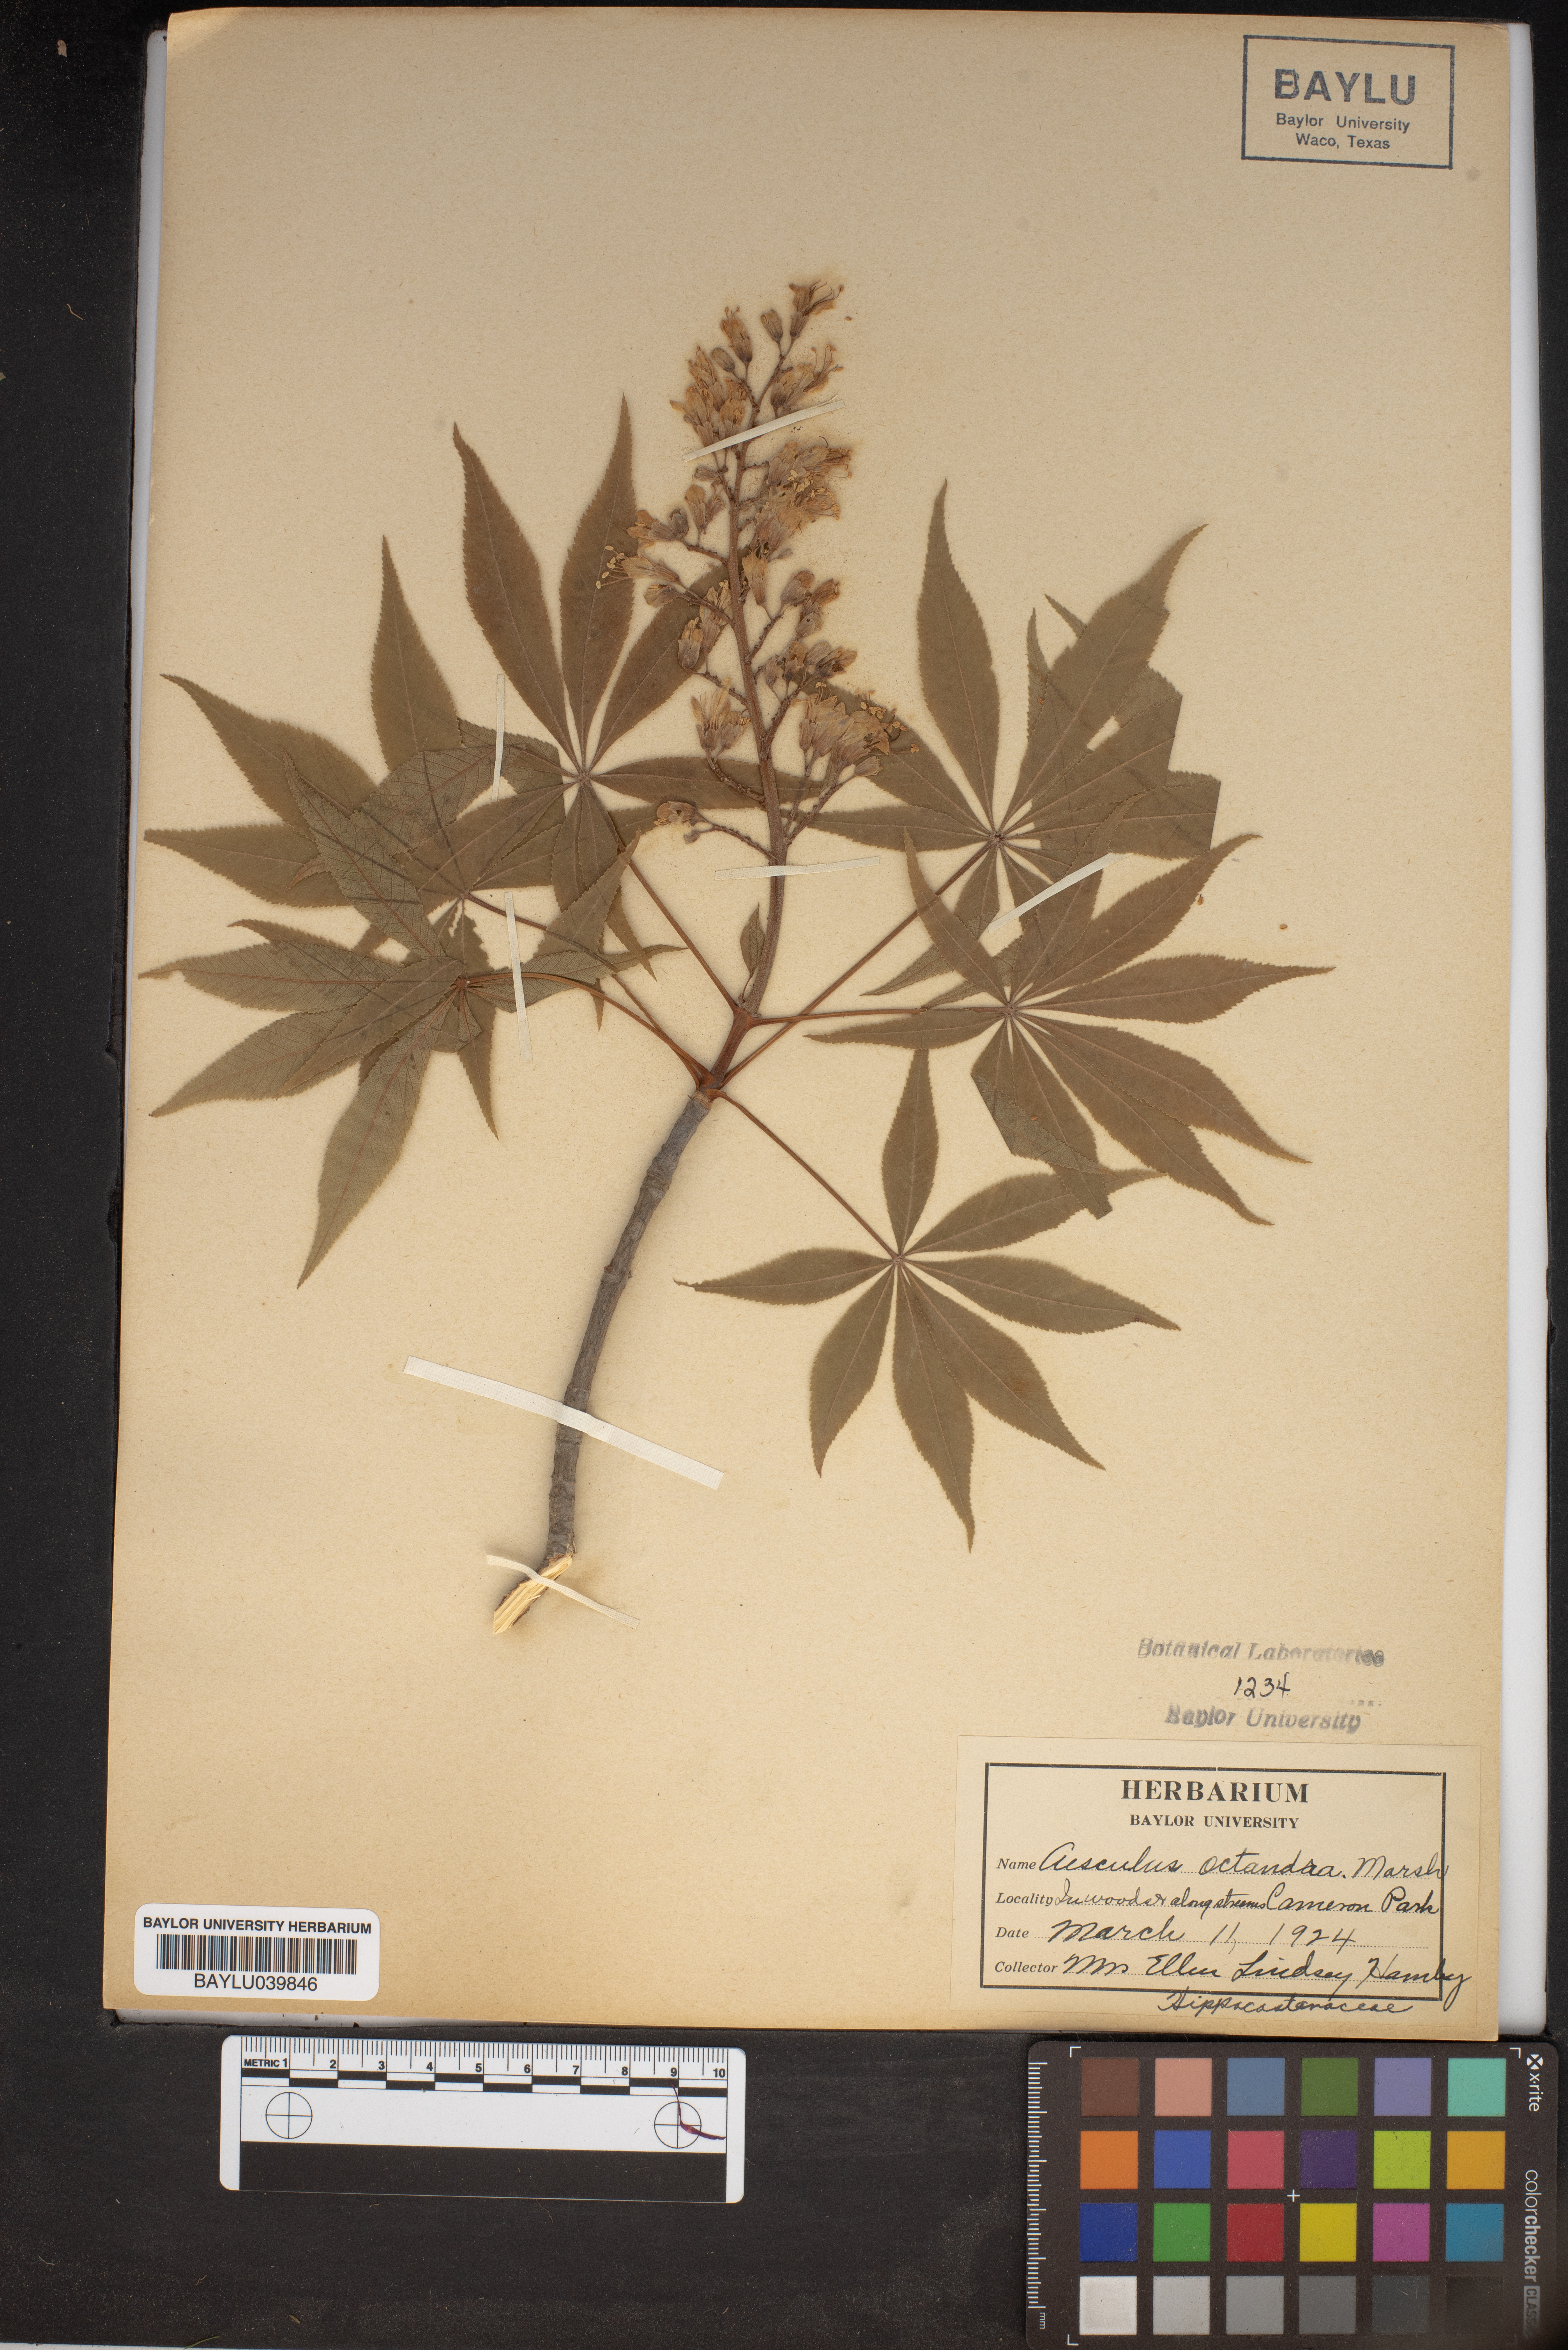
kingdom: Plantae
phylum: Tracheophyta
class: Magnoliopsida
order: Sapindales
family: Sapindaceae
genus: Aesculus
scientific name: Aesculus flava
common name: Yellow buckeye
